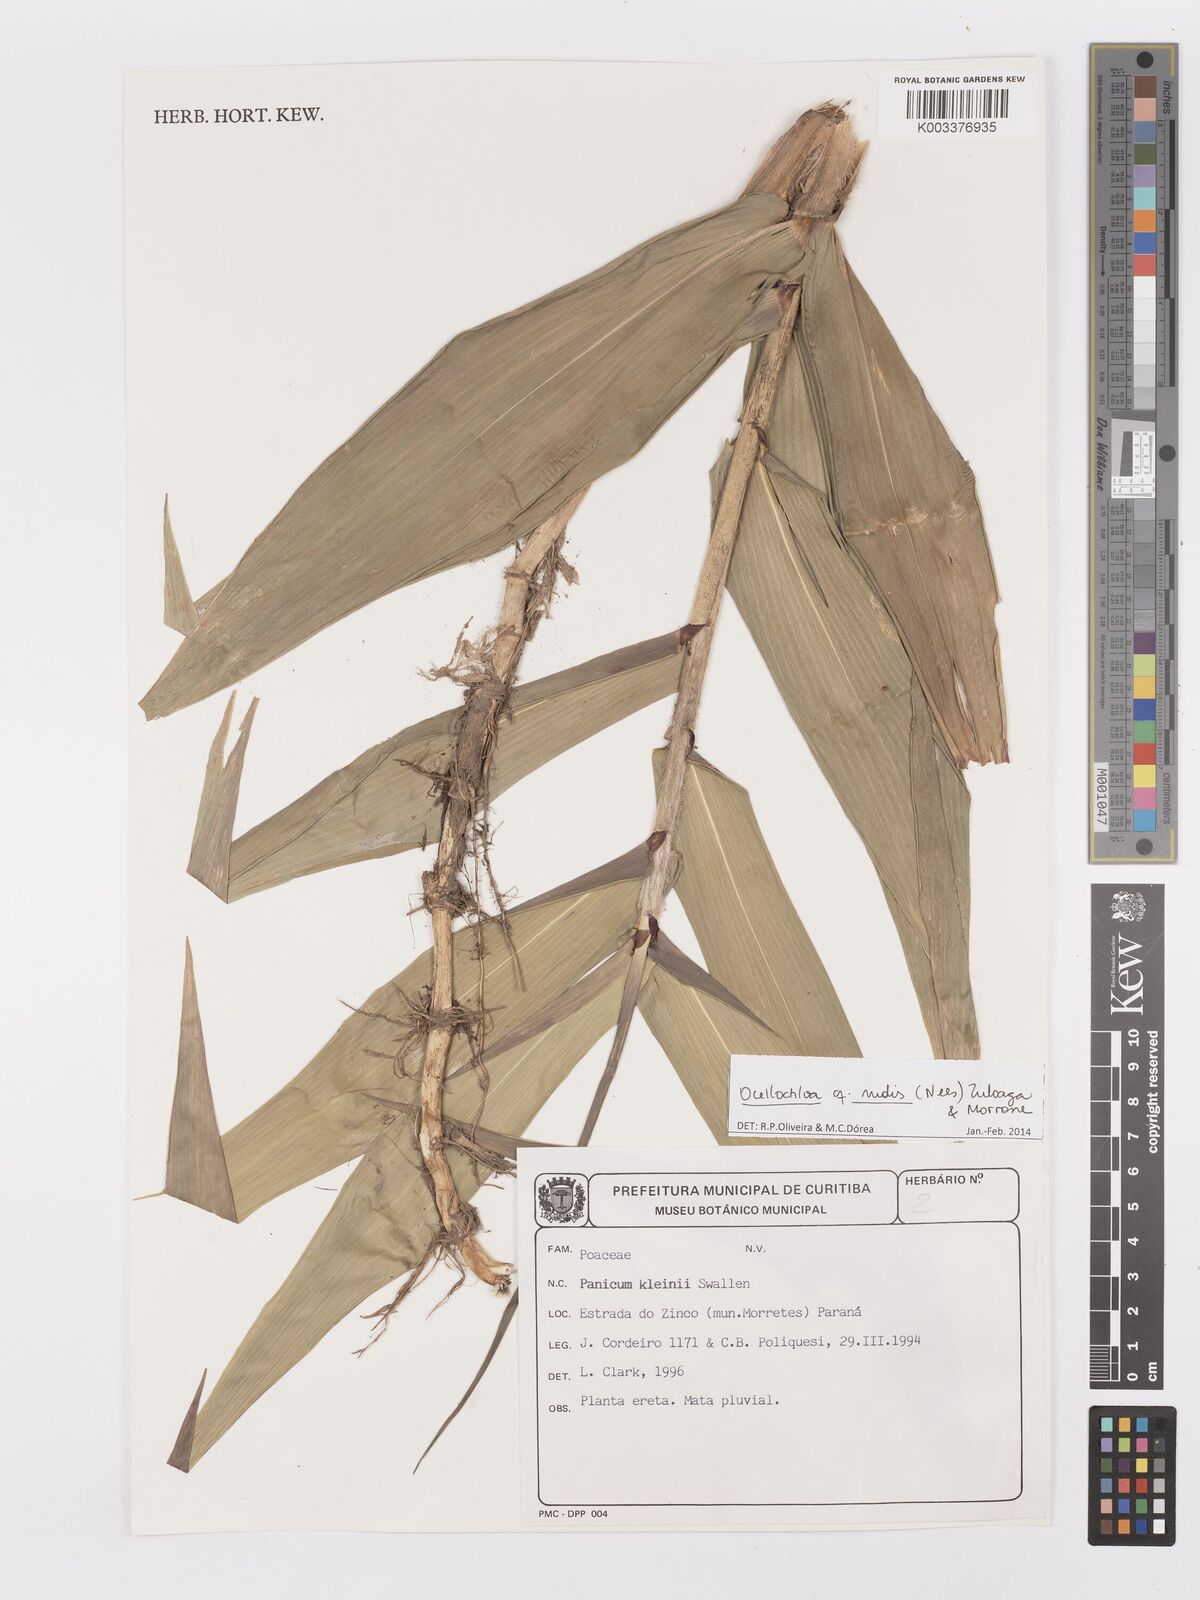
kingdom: Plantae
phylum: Tracheophyta
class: Liliopsida
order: Poales
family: Poaceae
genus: Ocellochloa
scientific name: Ocellochloa rudis
